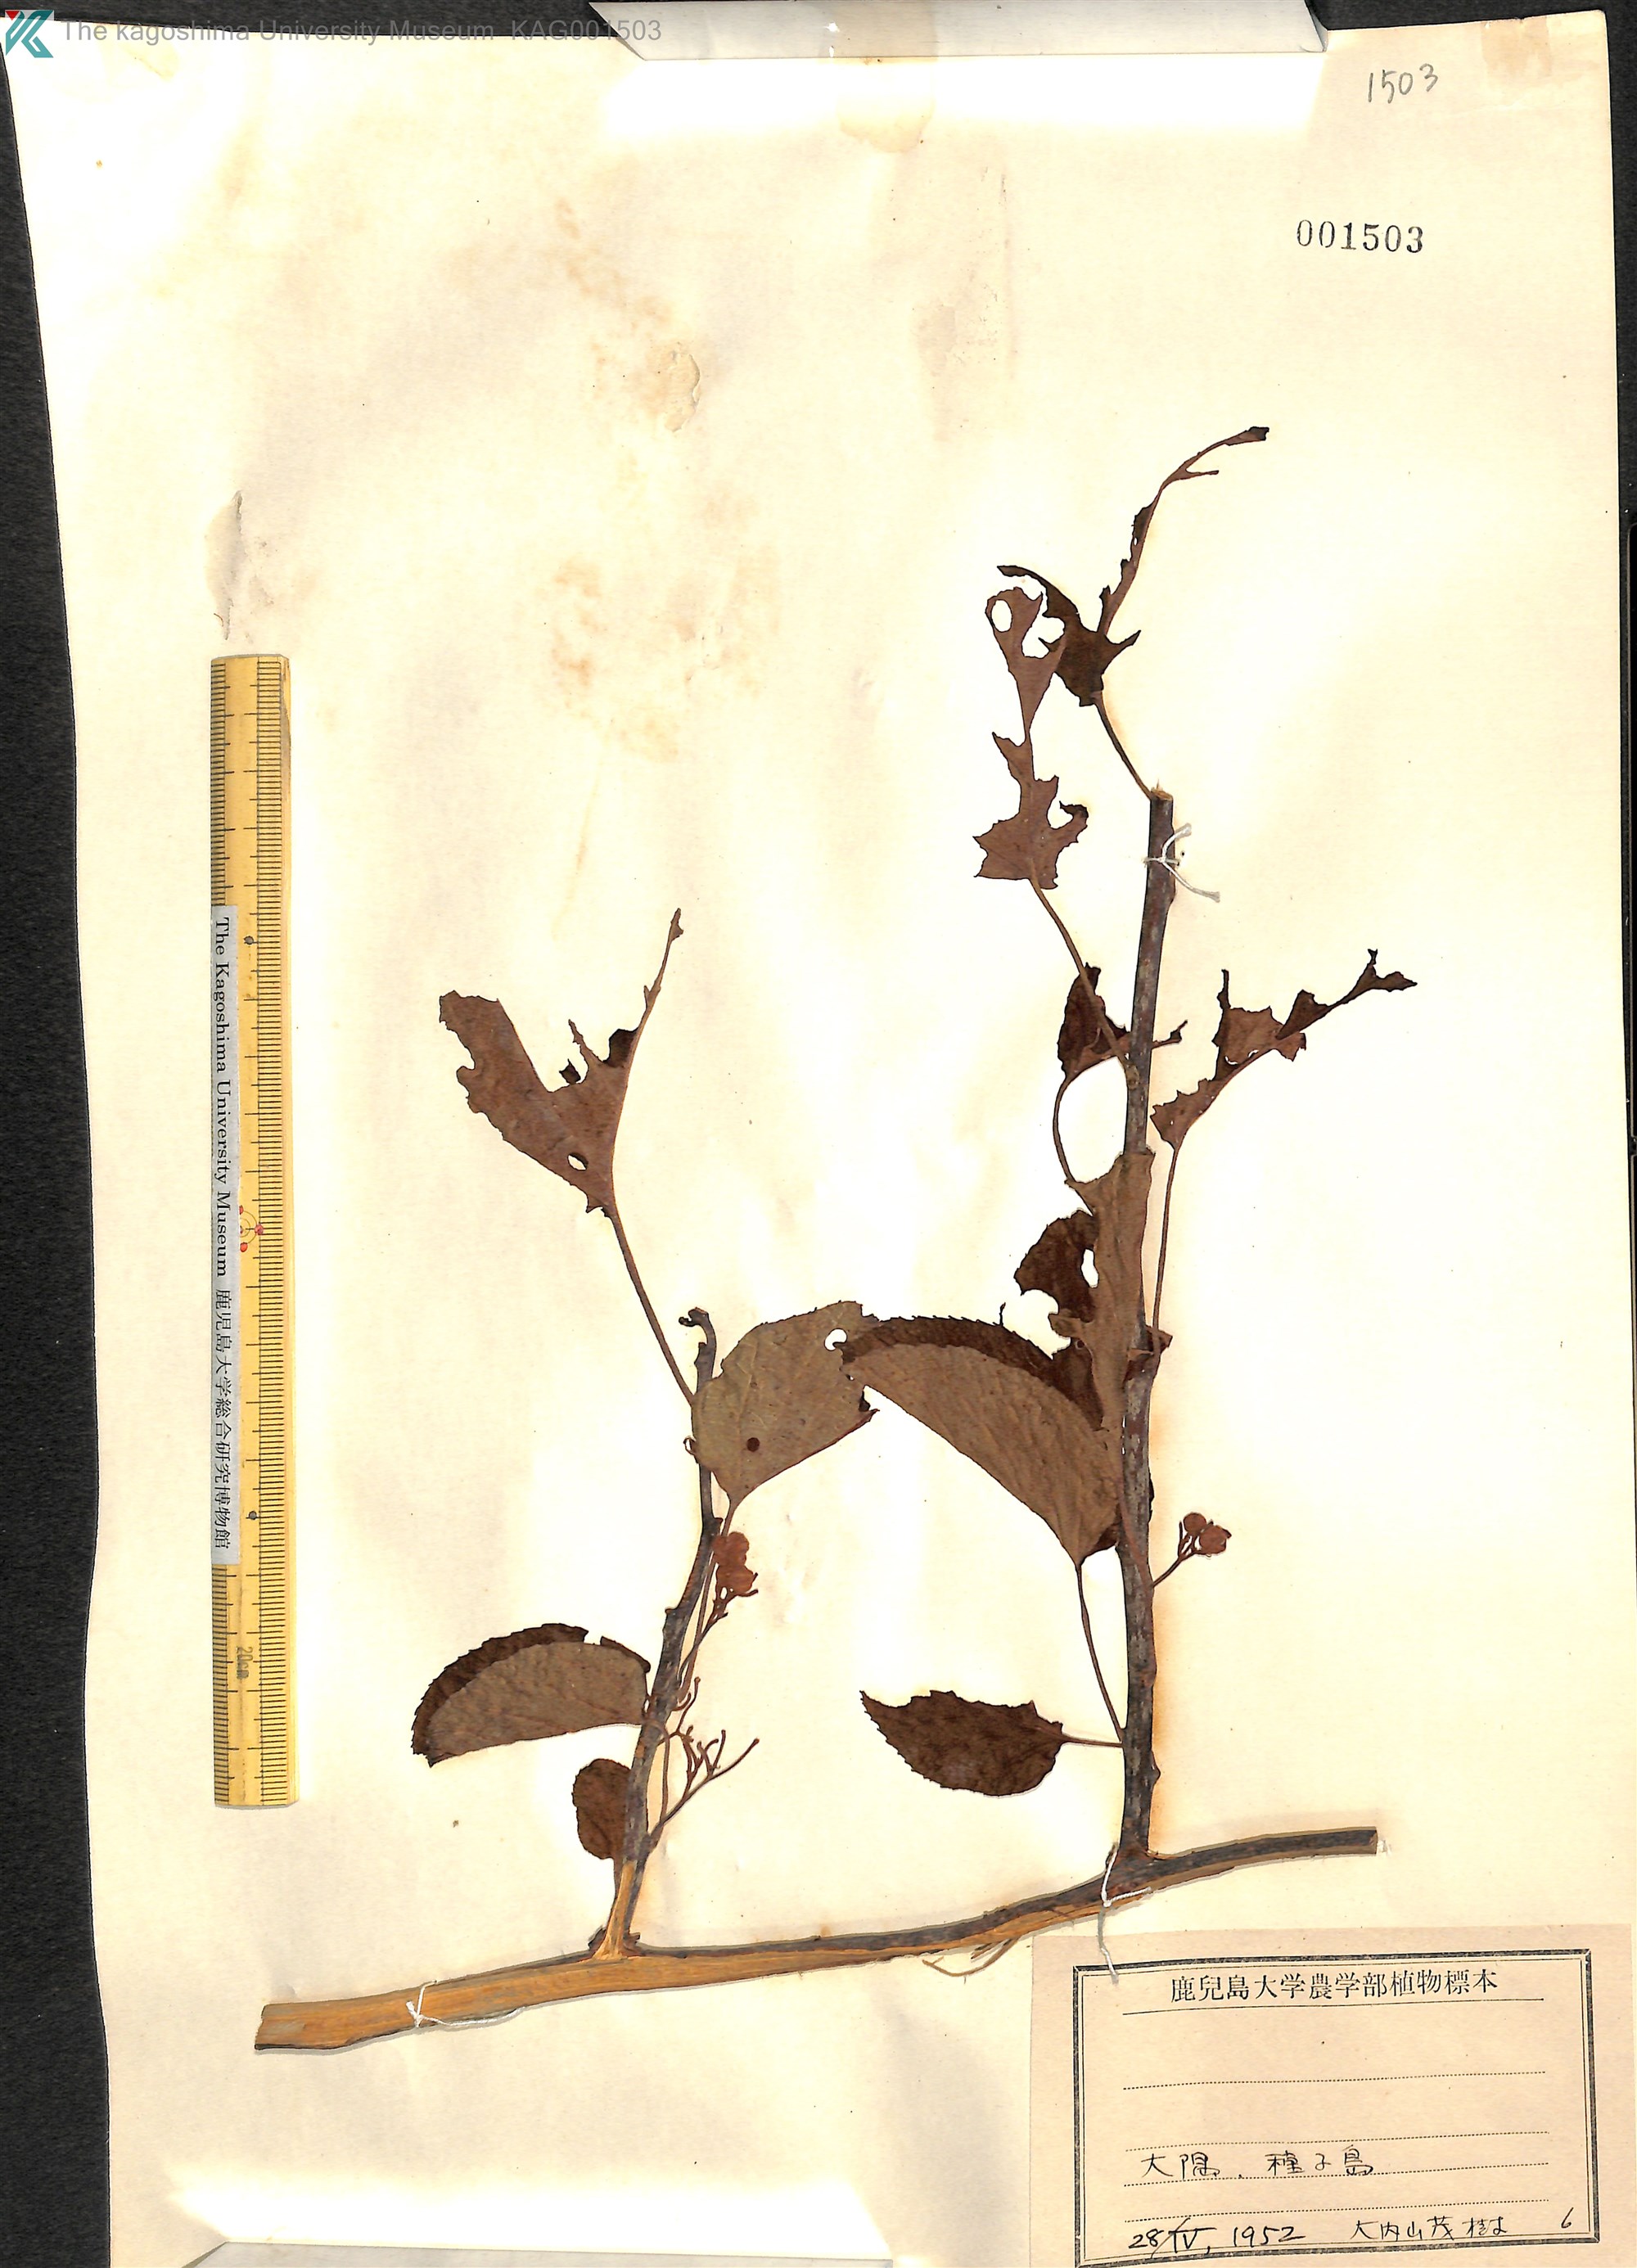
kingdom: Plantae
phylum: Tracheophyta
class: Magnoliopsida
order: Ericales
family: Actinidiaceae
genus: Actinidia
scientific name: Actinidia
